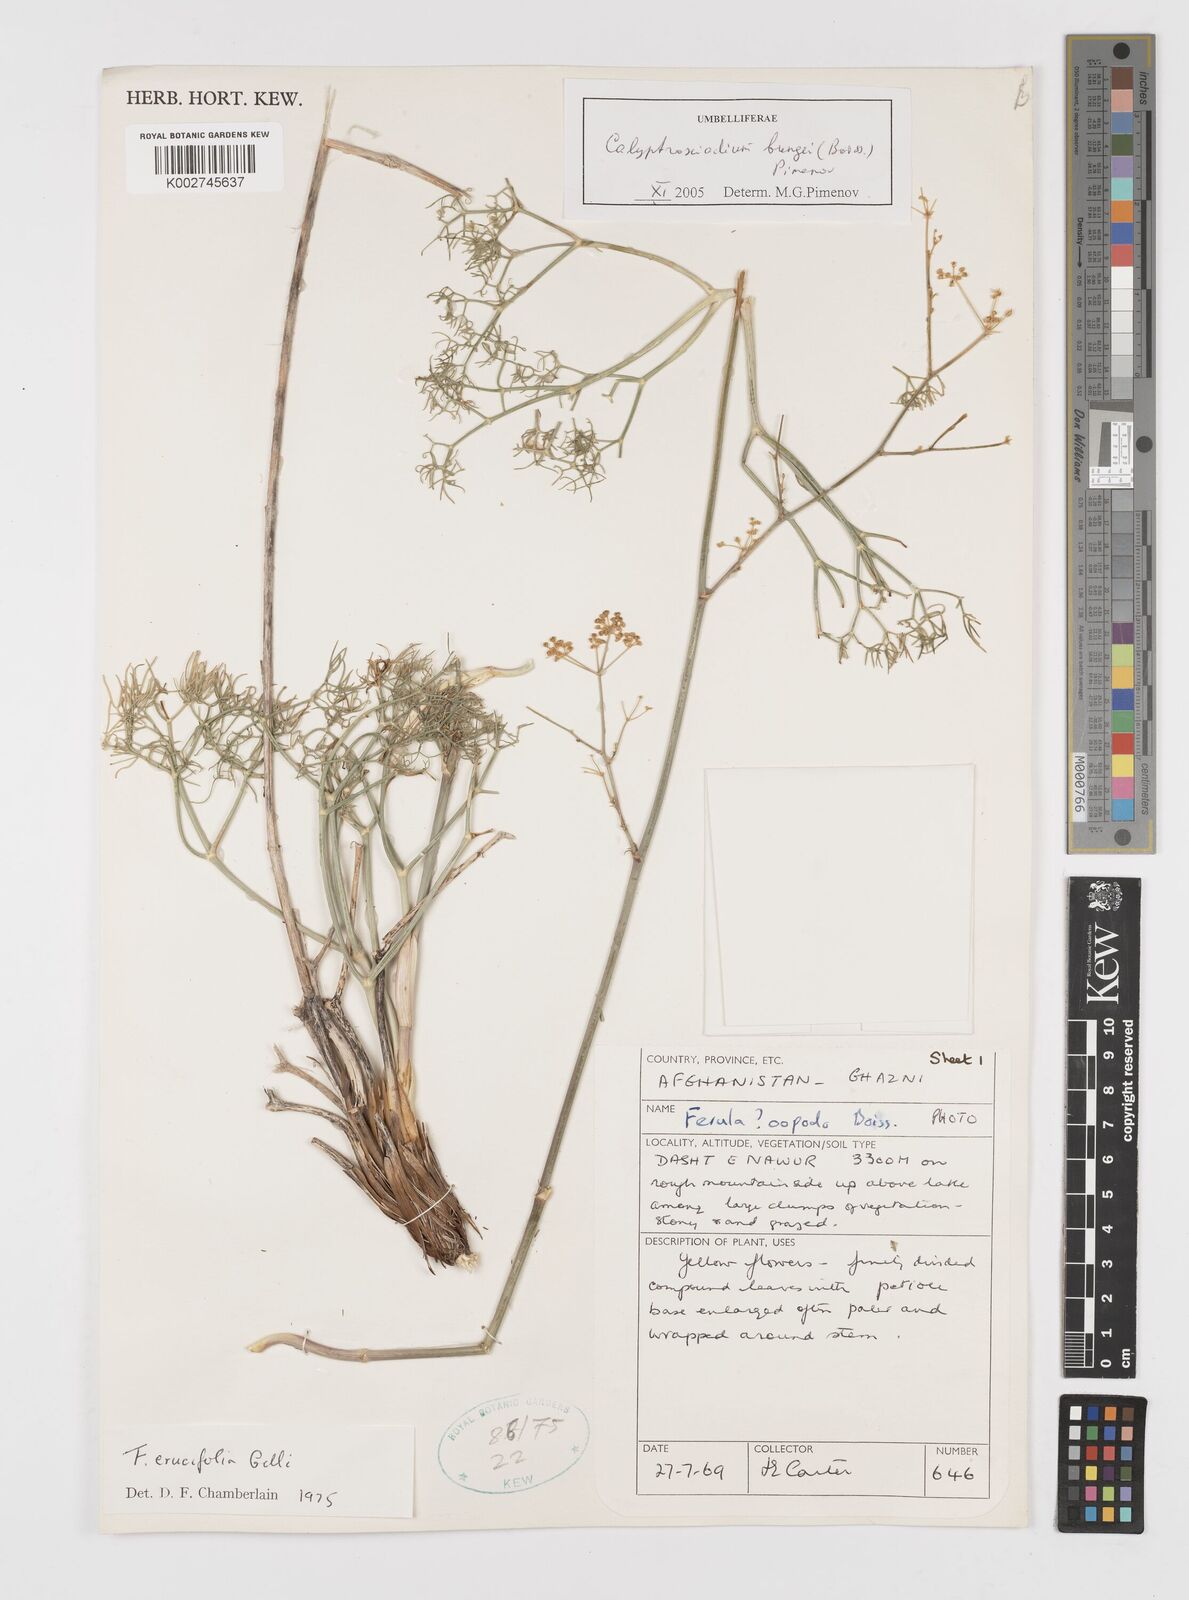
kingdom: Plantae
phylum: Tracheophyta
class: Magnoliopsida
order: Apiales
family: Apiaceae
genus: Calyptrosciadium
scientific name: Calyptrosciadium bungei
